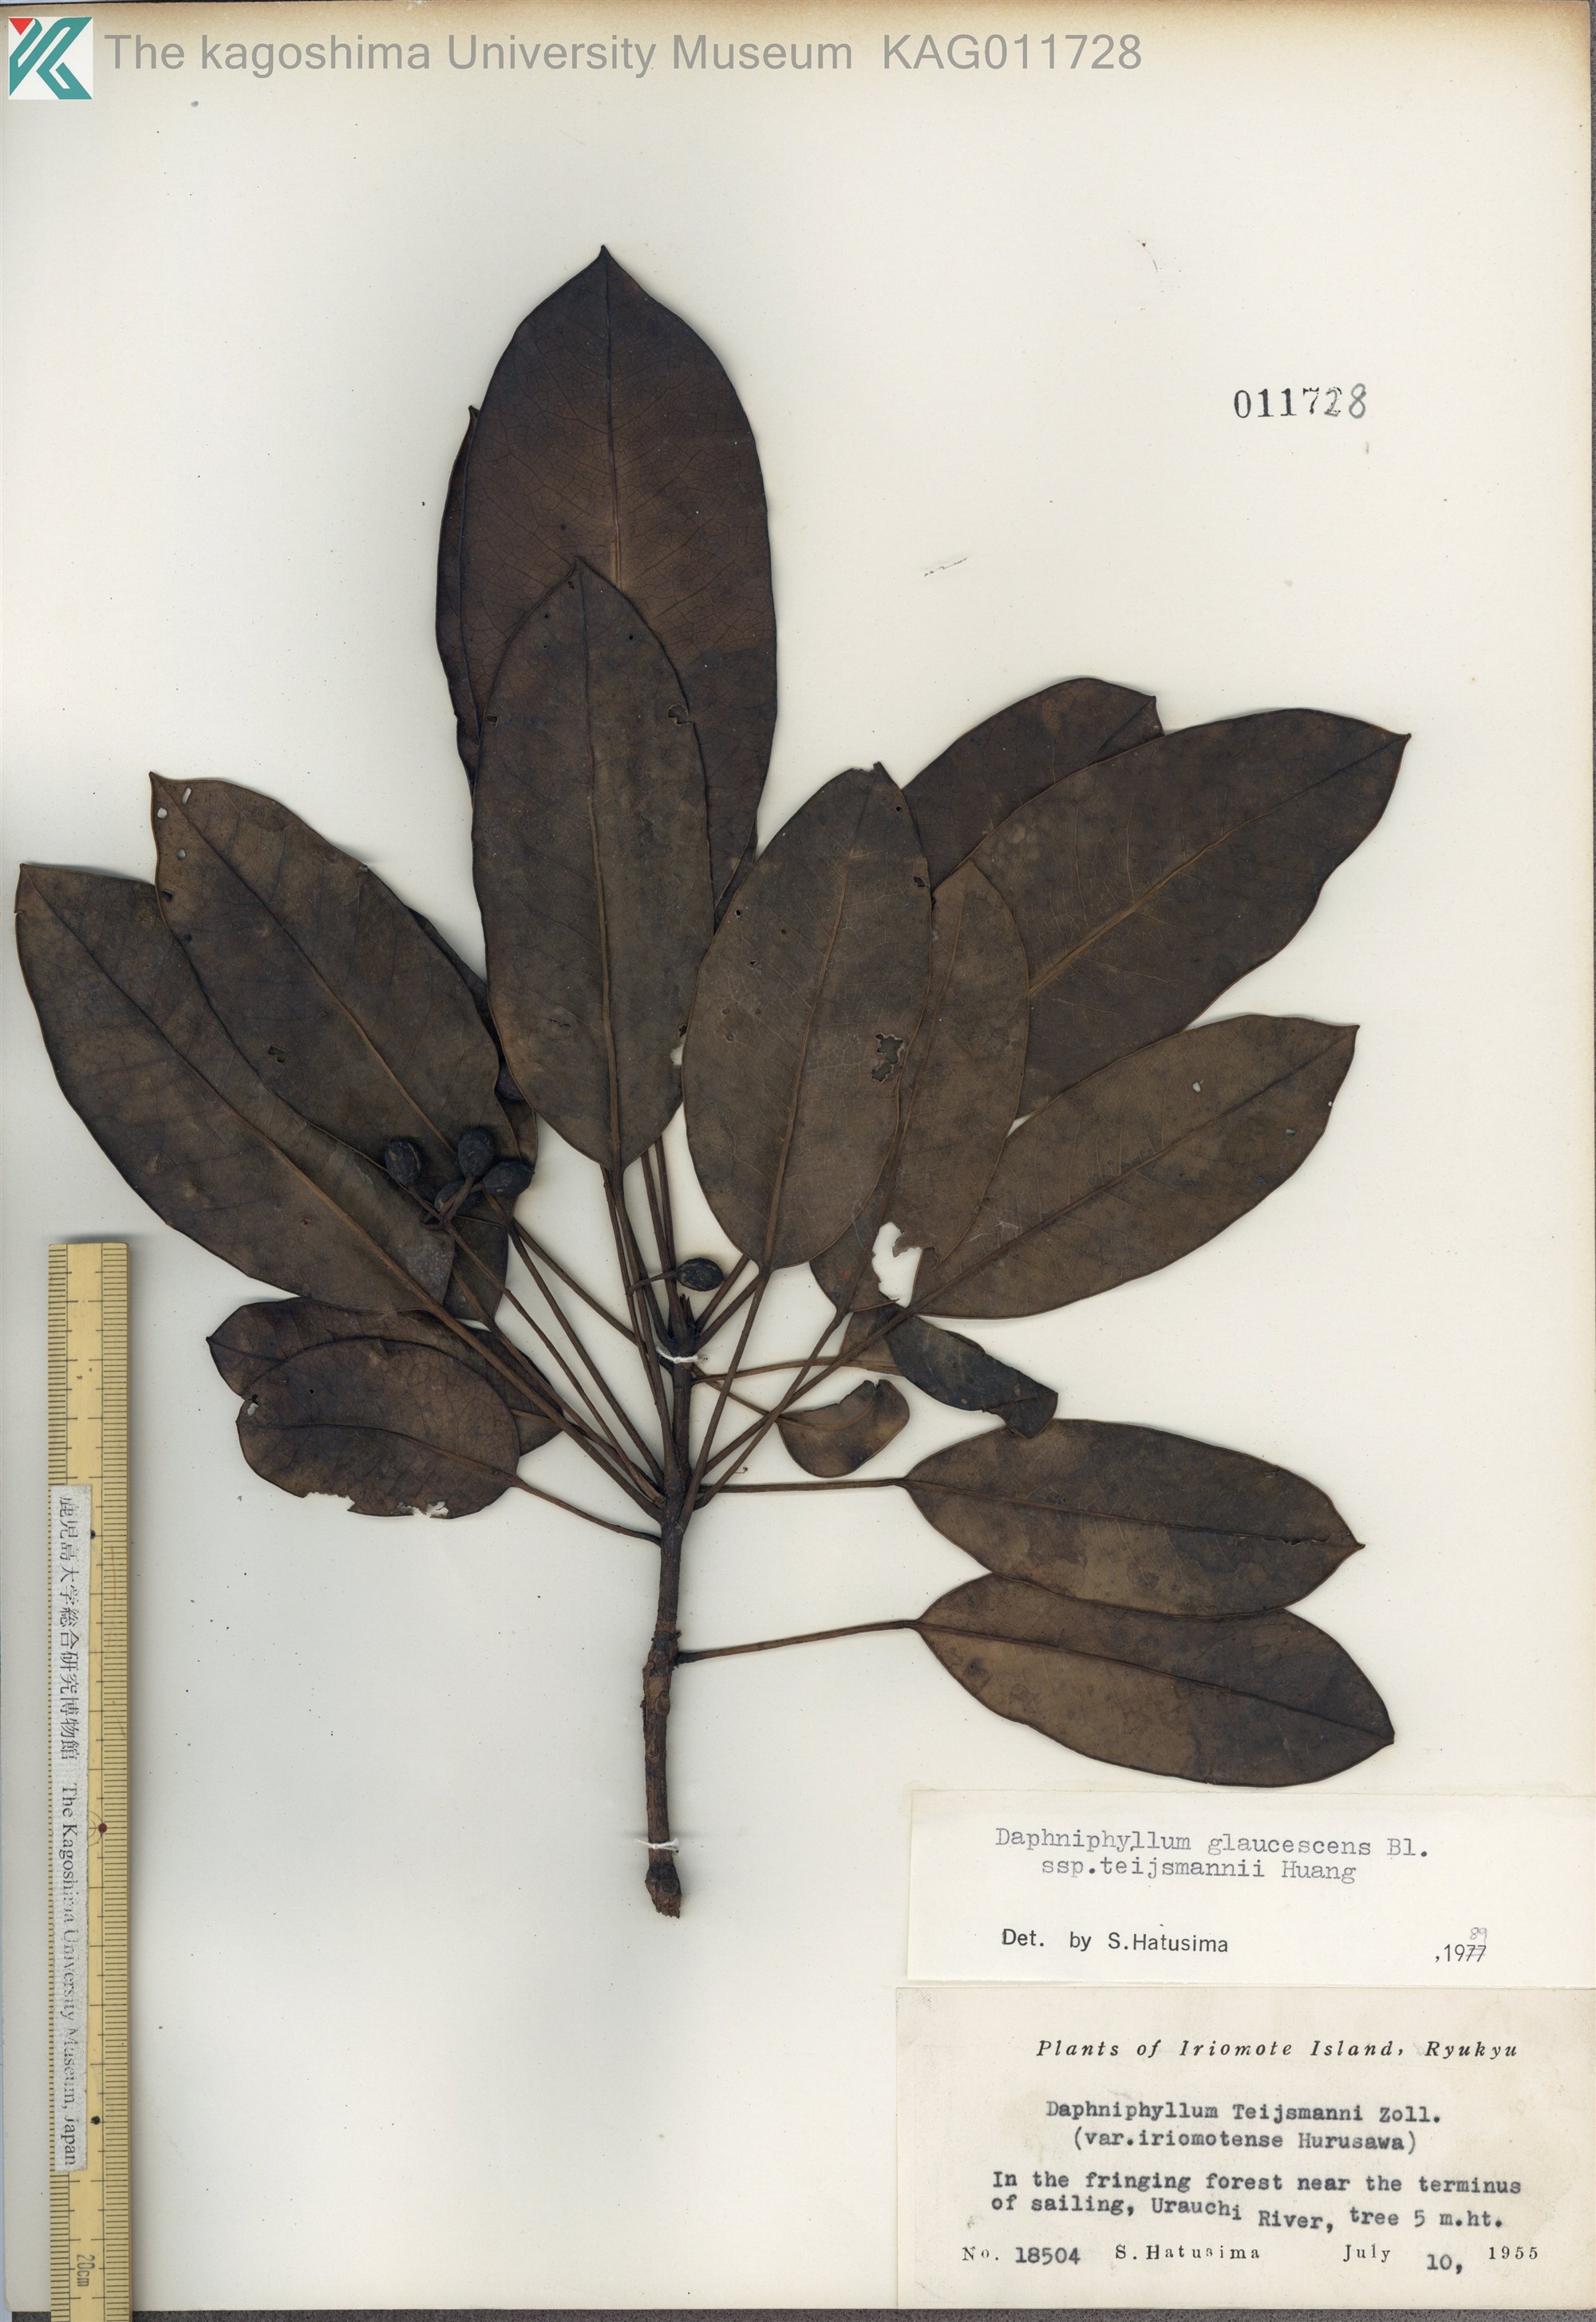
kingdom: Plantae
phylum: Tracheophyta
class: Magnoliopsida
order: Saxifragales
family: Daphniphyllaceae
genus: Daphniphyllum
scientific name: Daphniphyllum teijsmannii
